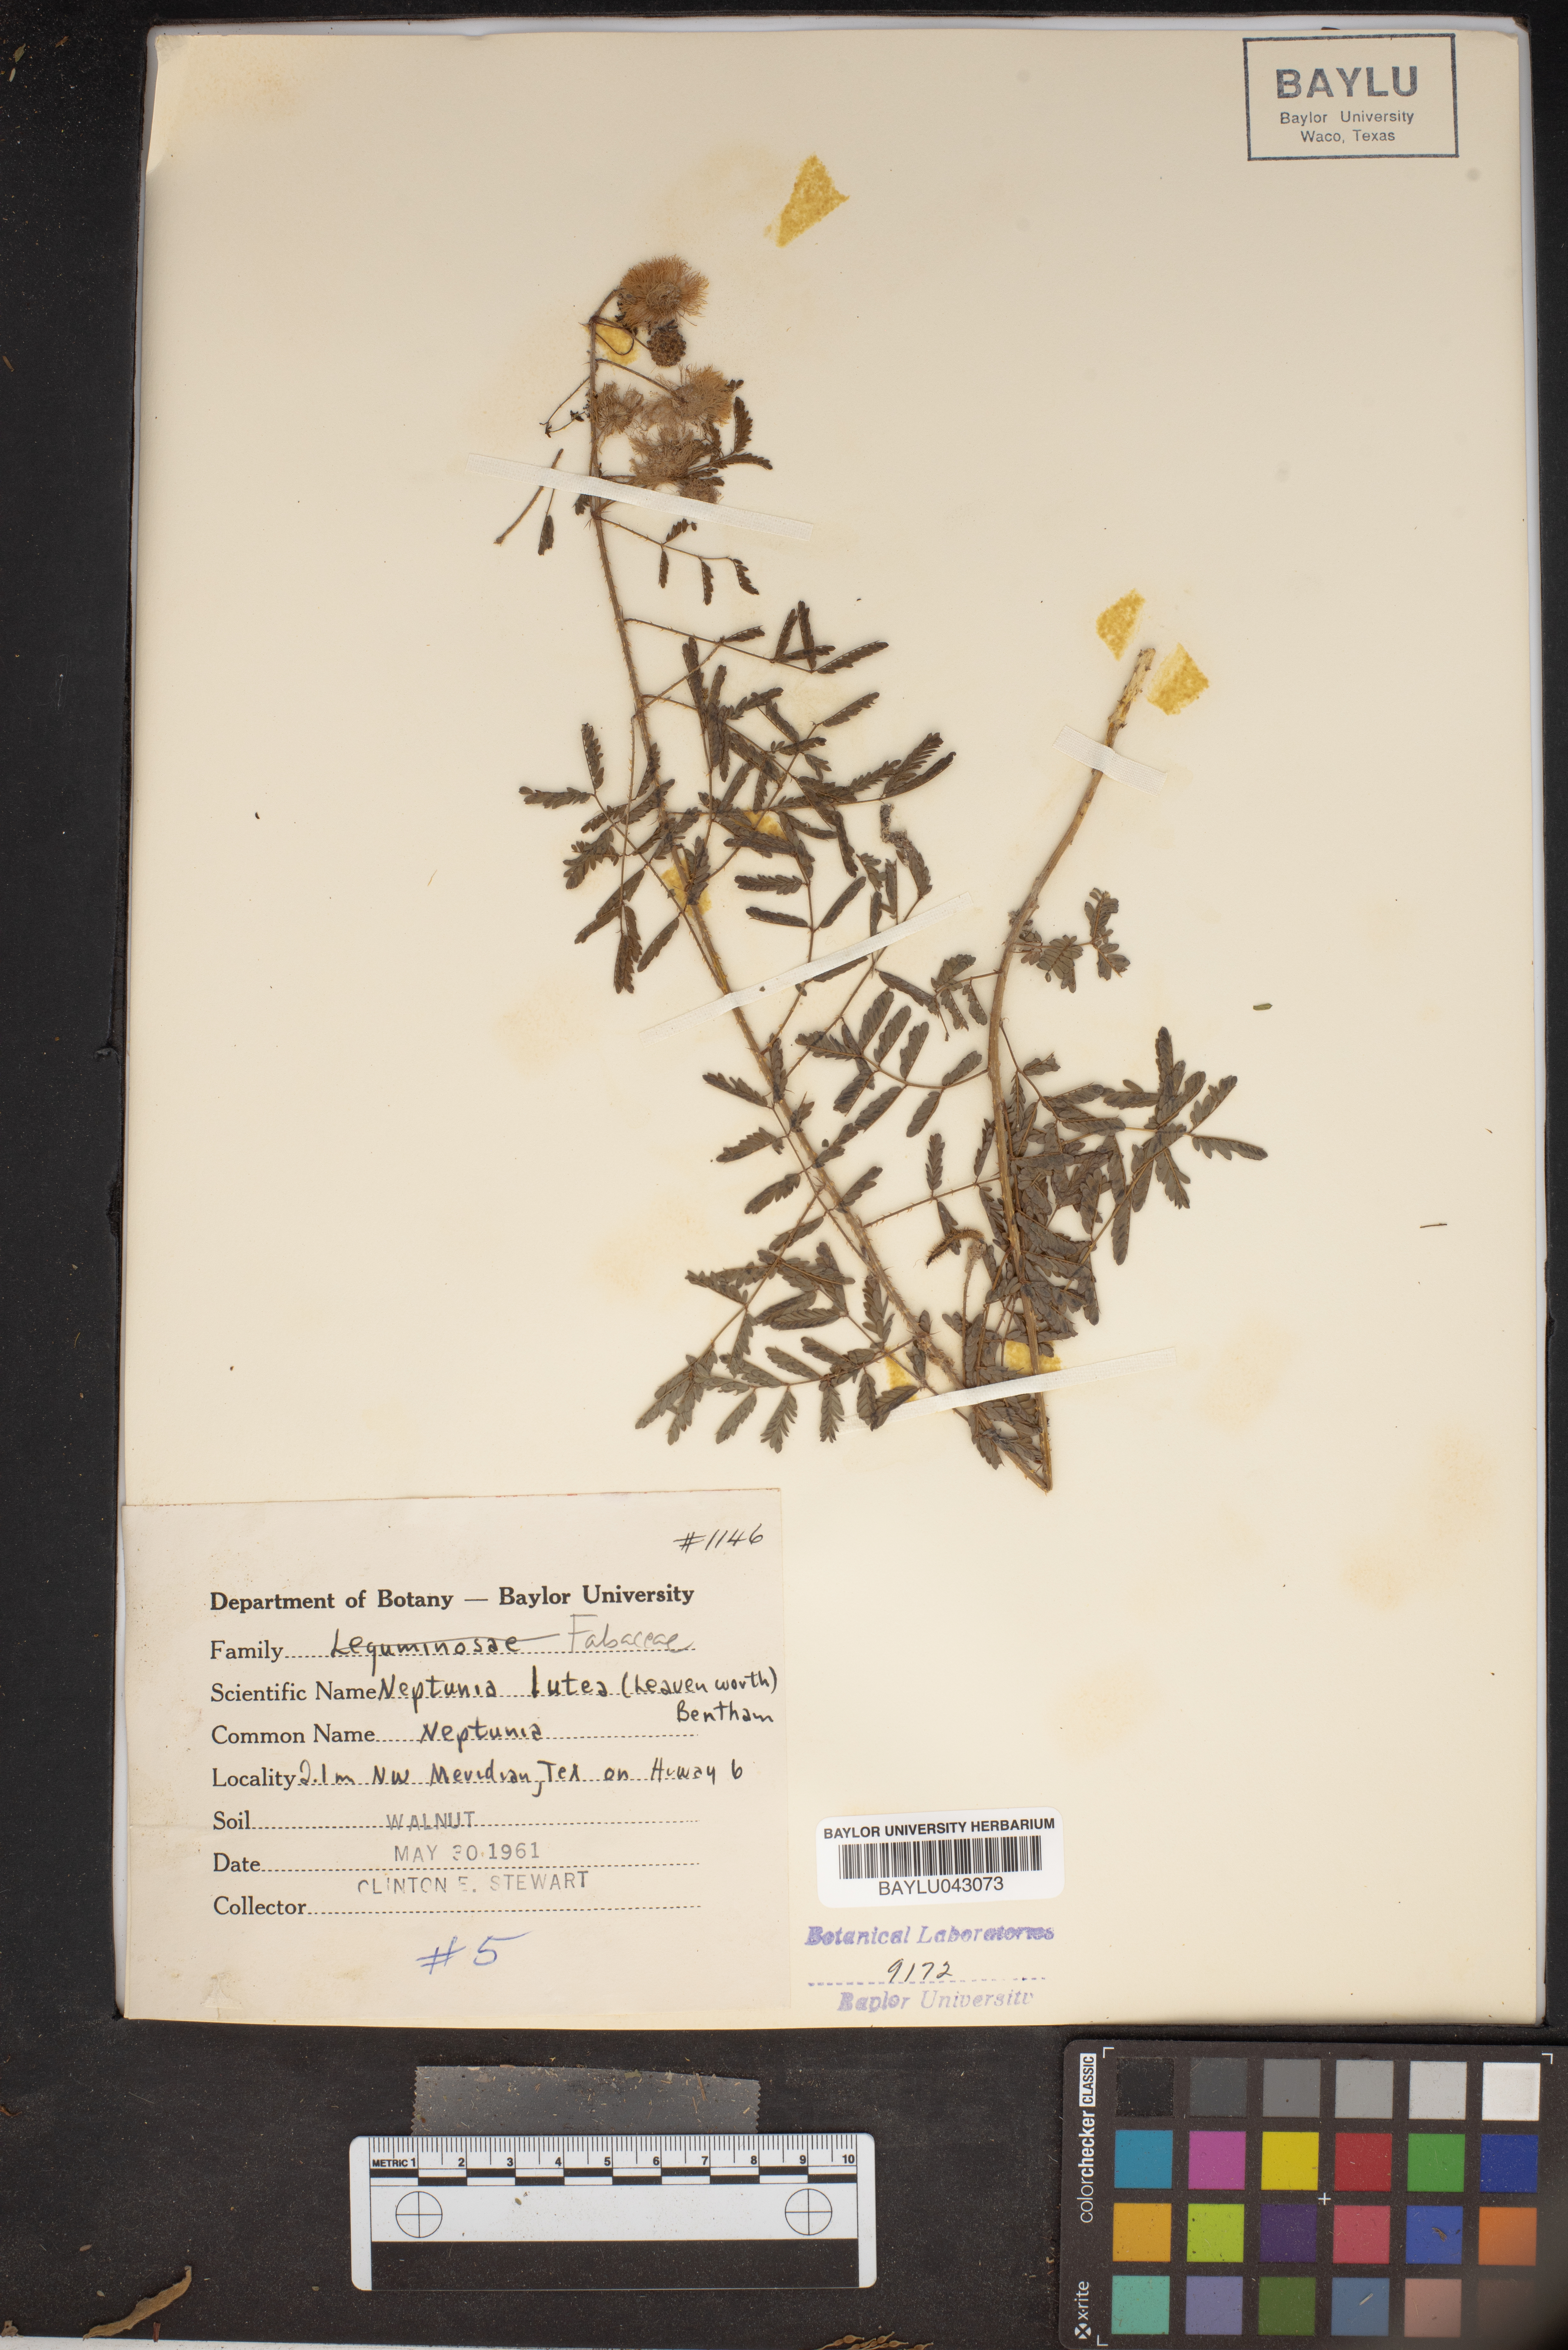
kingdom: Plantae
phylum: Tracheophyta
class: Magnoliopsida
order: Fabales
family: Fabaceae
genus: Neptunia
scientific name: Neptunia lutea
